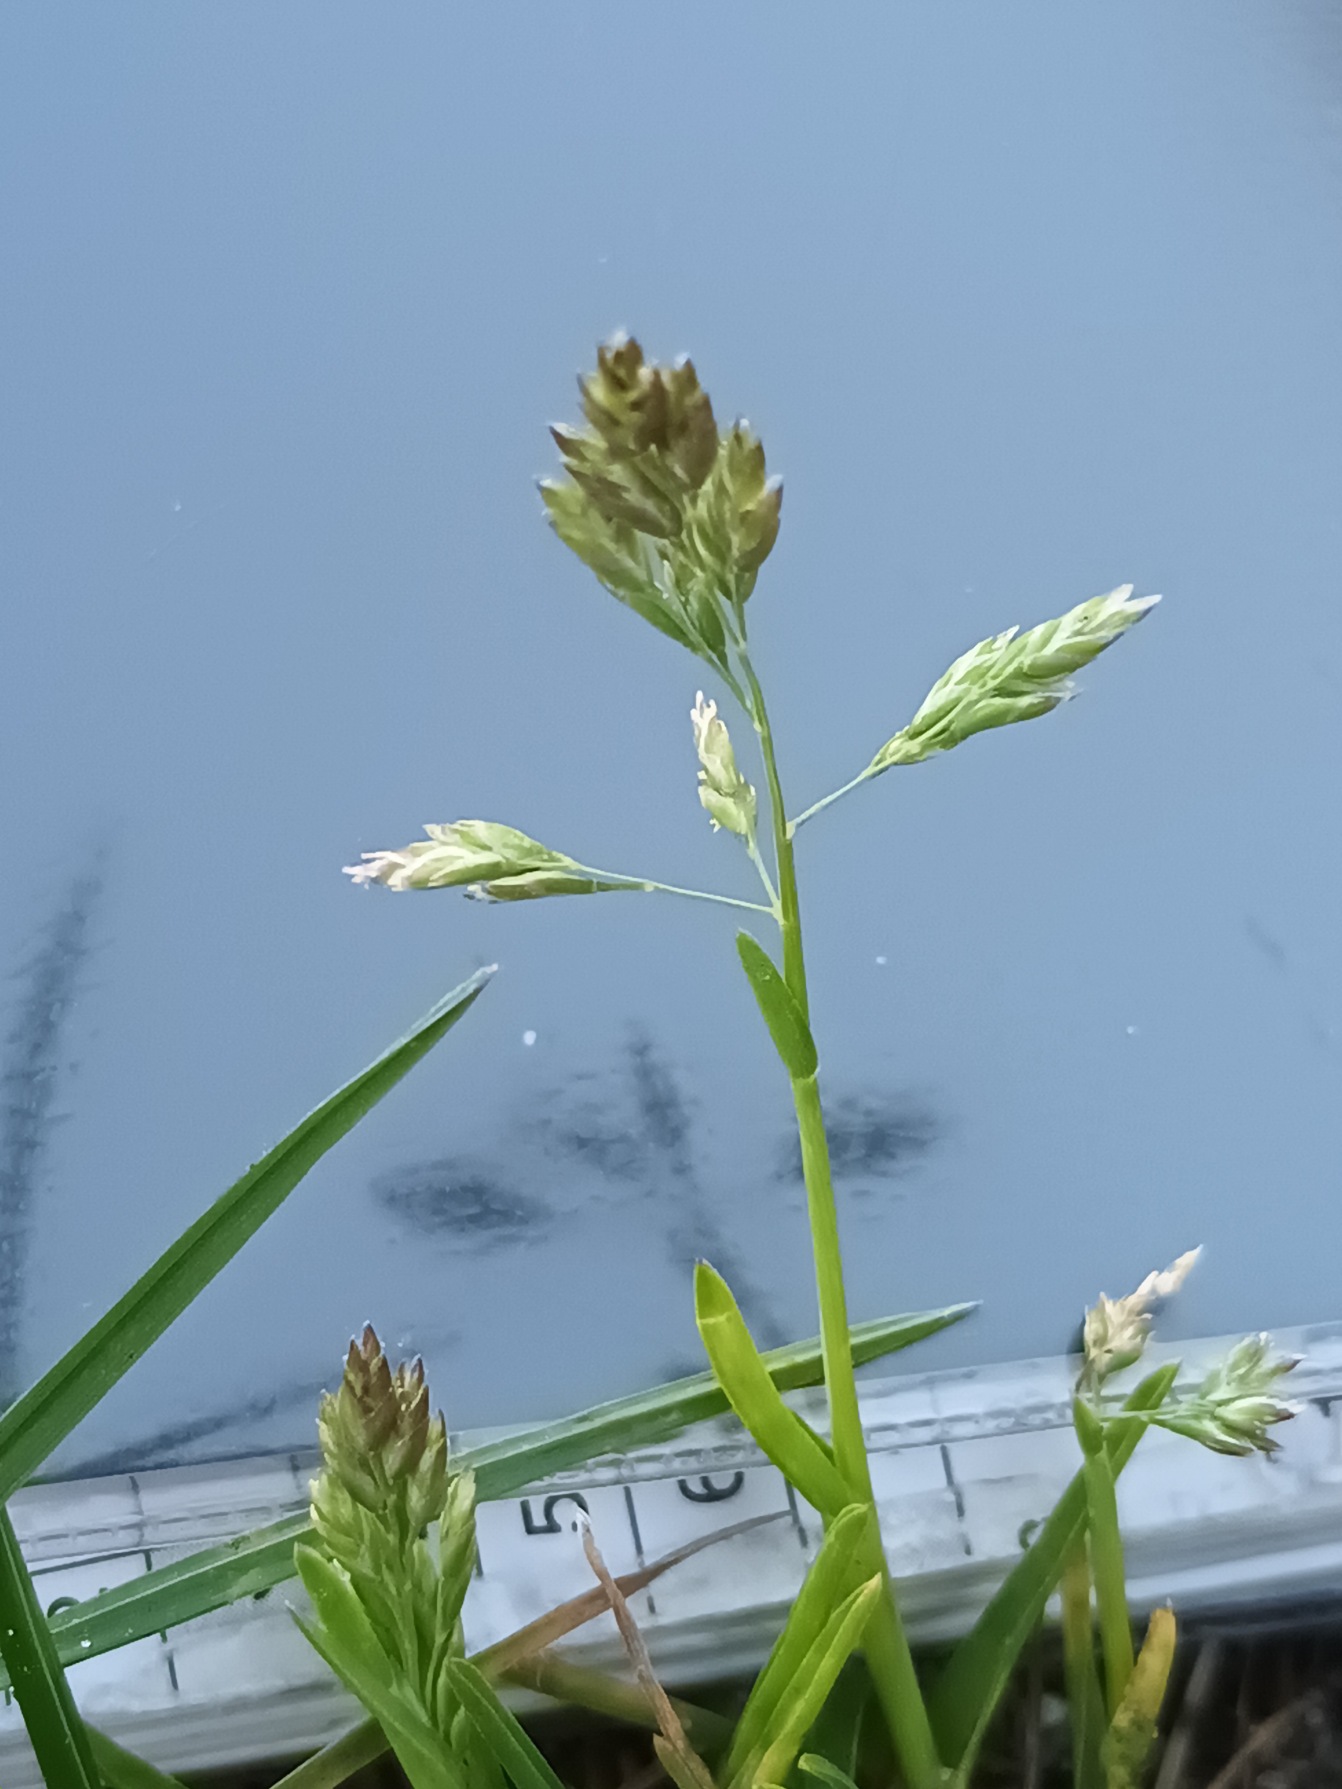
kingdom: Plantae
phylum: Tracheophyta
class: Liliopsida
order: Poales
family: Poaceae
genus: Poa
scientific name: Poa annua
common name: Enårig rapgræs
